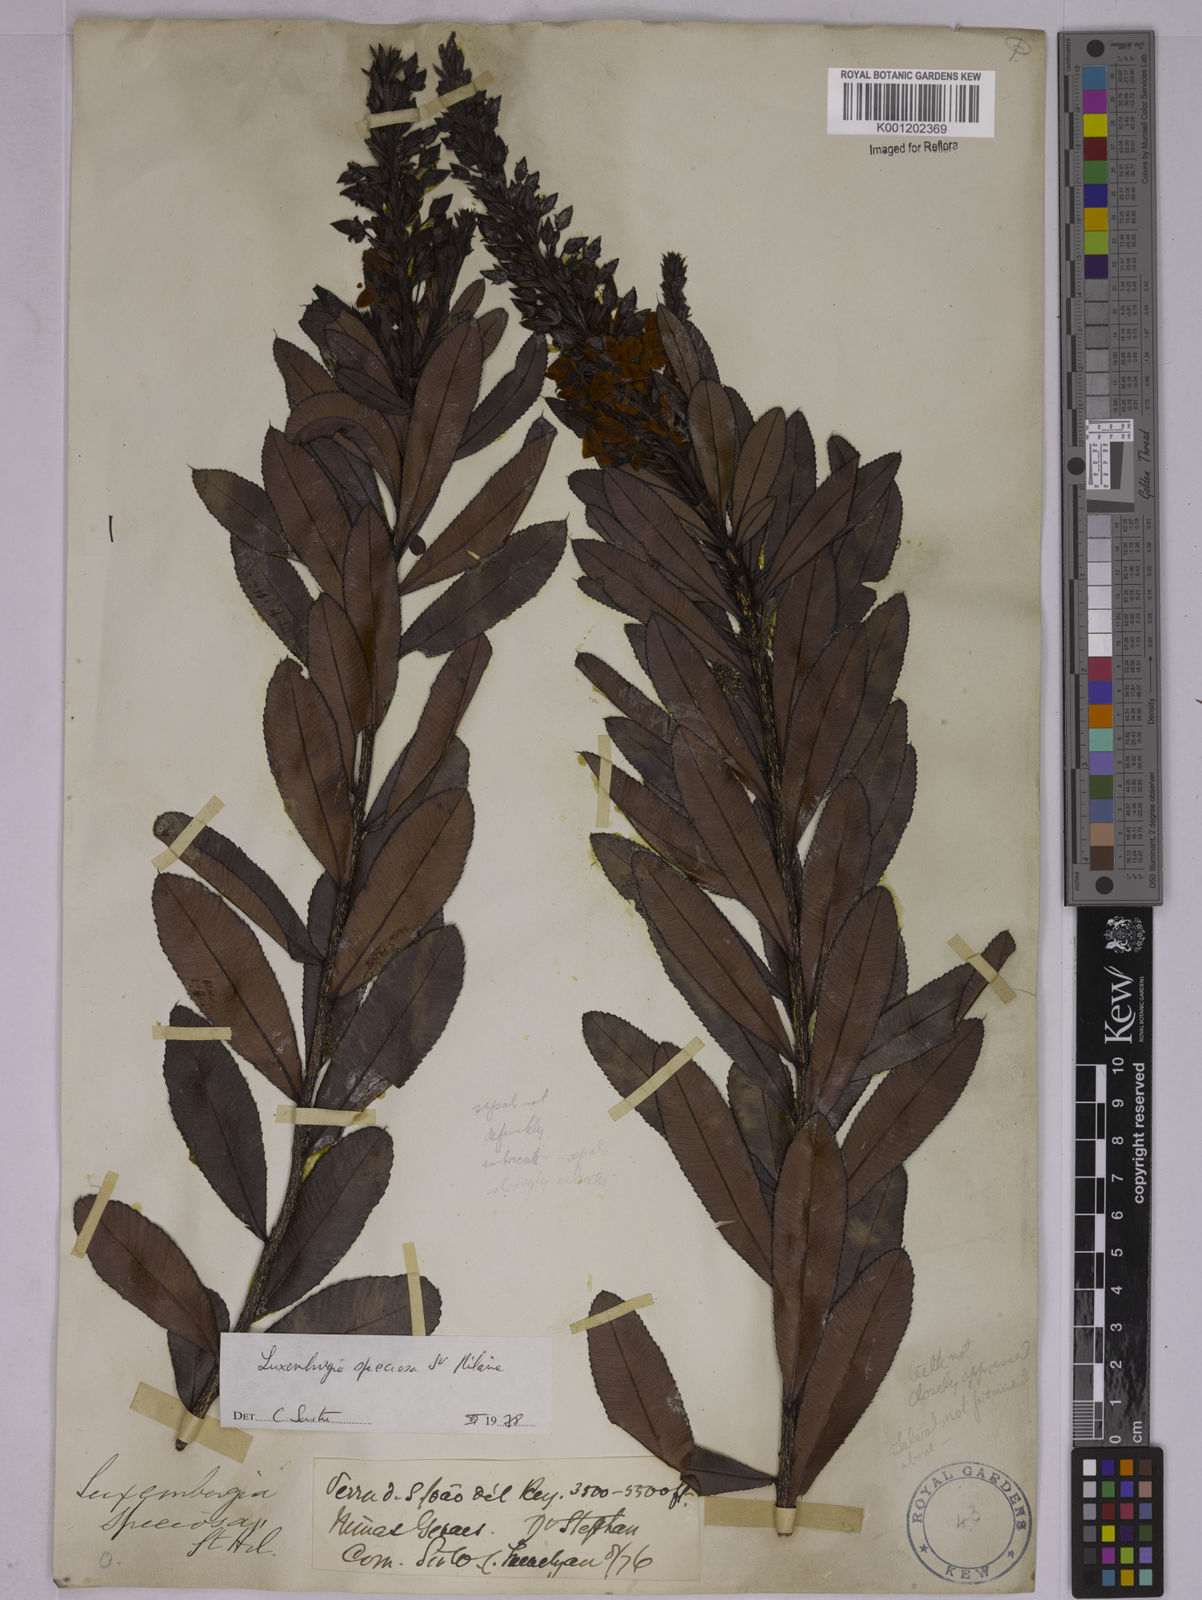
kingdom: Plantae
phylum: Tracheophyta
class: Magnoliopsida
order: Malpighiales
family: Ochnaceae
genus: Luxemburgia
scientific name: Luxemburgia speciosa
